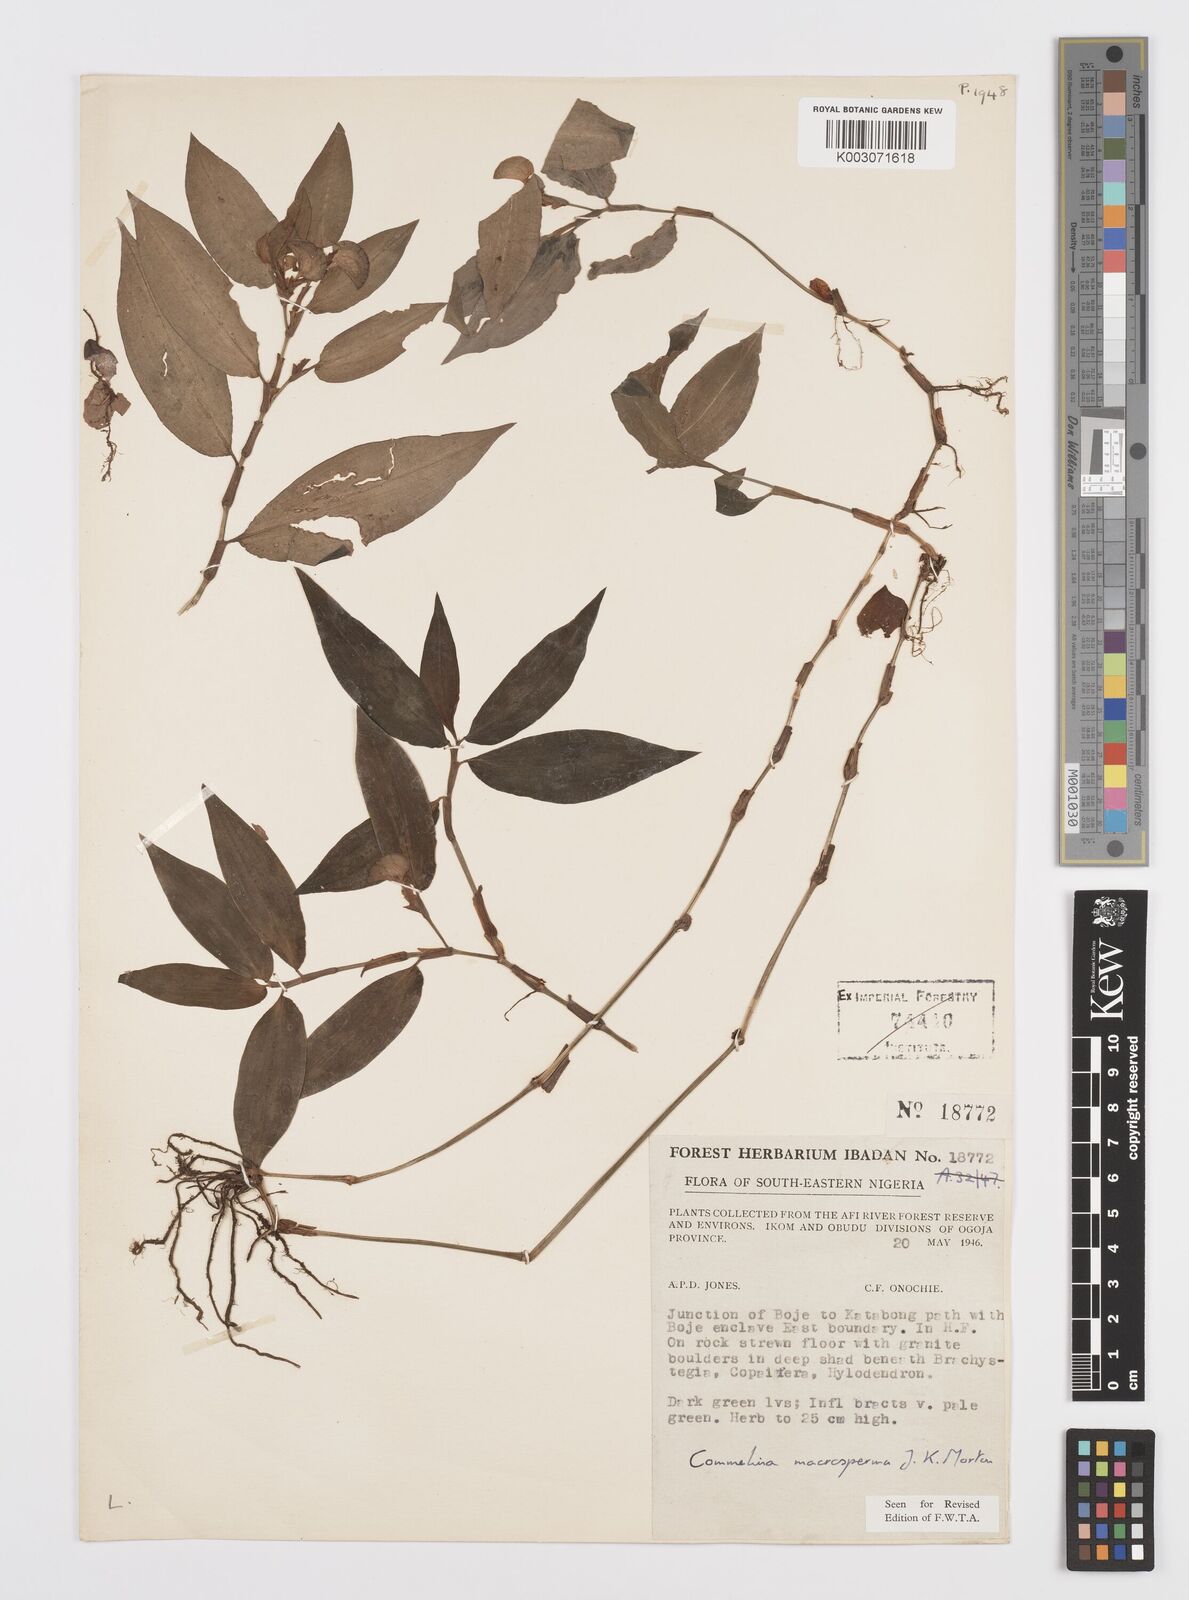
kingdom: Plantae
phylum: Tracheophyta
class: Liliopsida
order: Commelinales
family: Commelinaceae
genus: Commelina
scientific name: Commelina macrosperma
